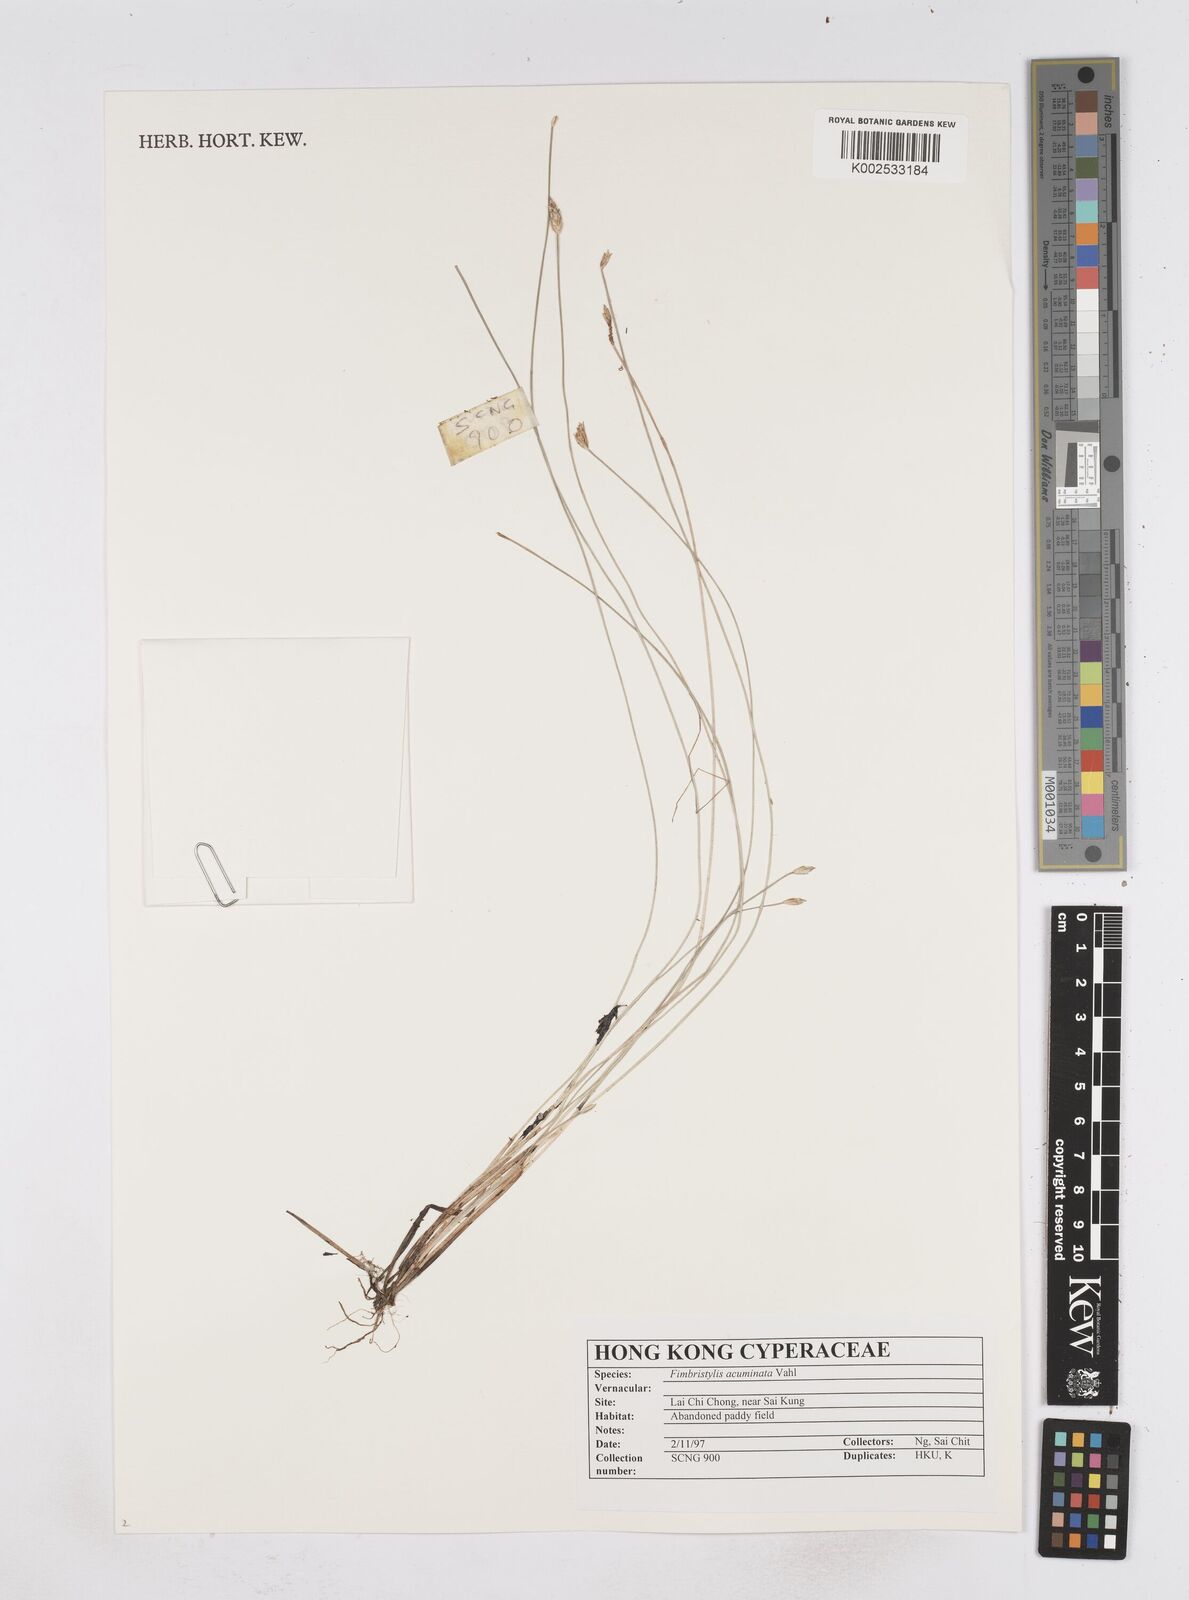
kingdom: Plantae
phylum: Tracheophyta
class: Liliopsida
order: Poales
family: Cyperaceae
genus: Fimbristylis
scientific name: Fimbristylis acuminata
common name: Pointed fimbristylis
